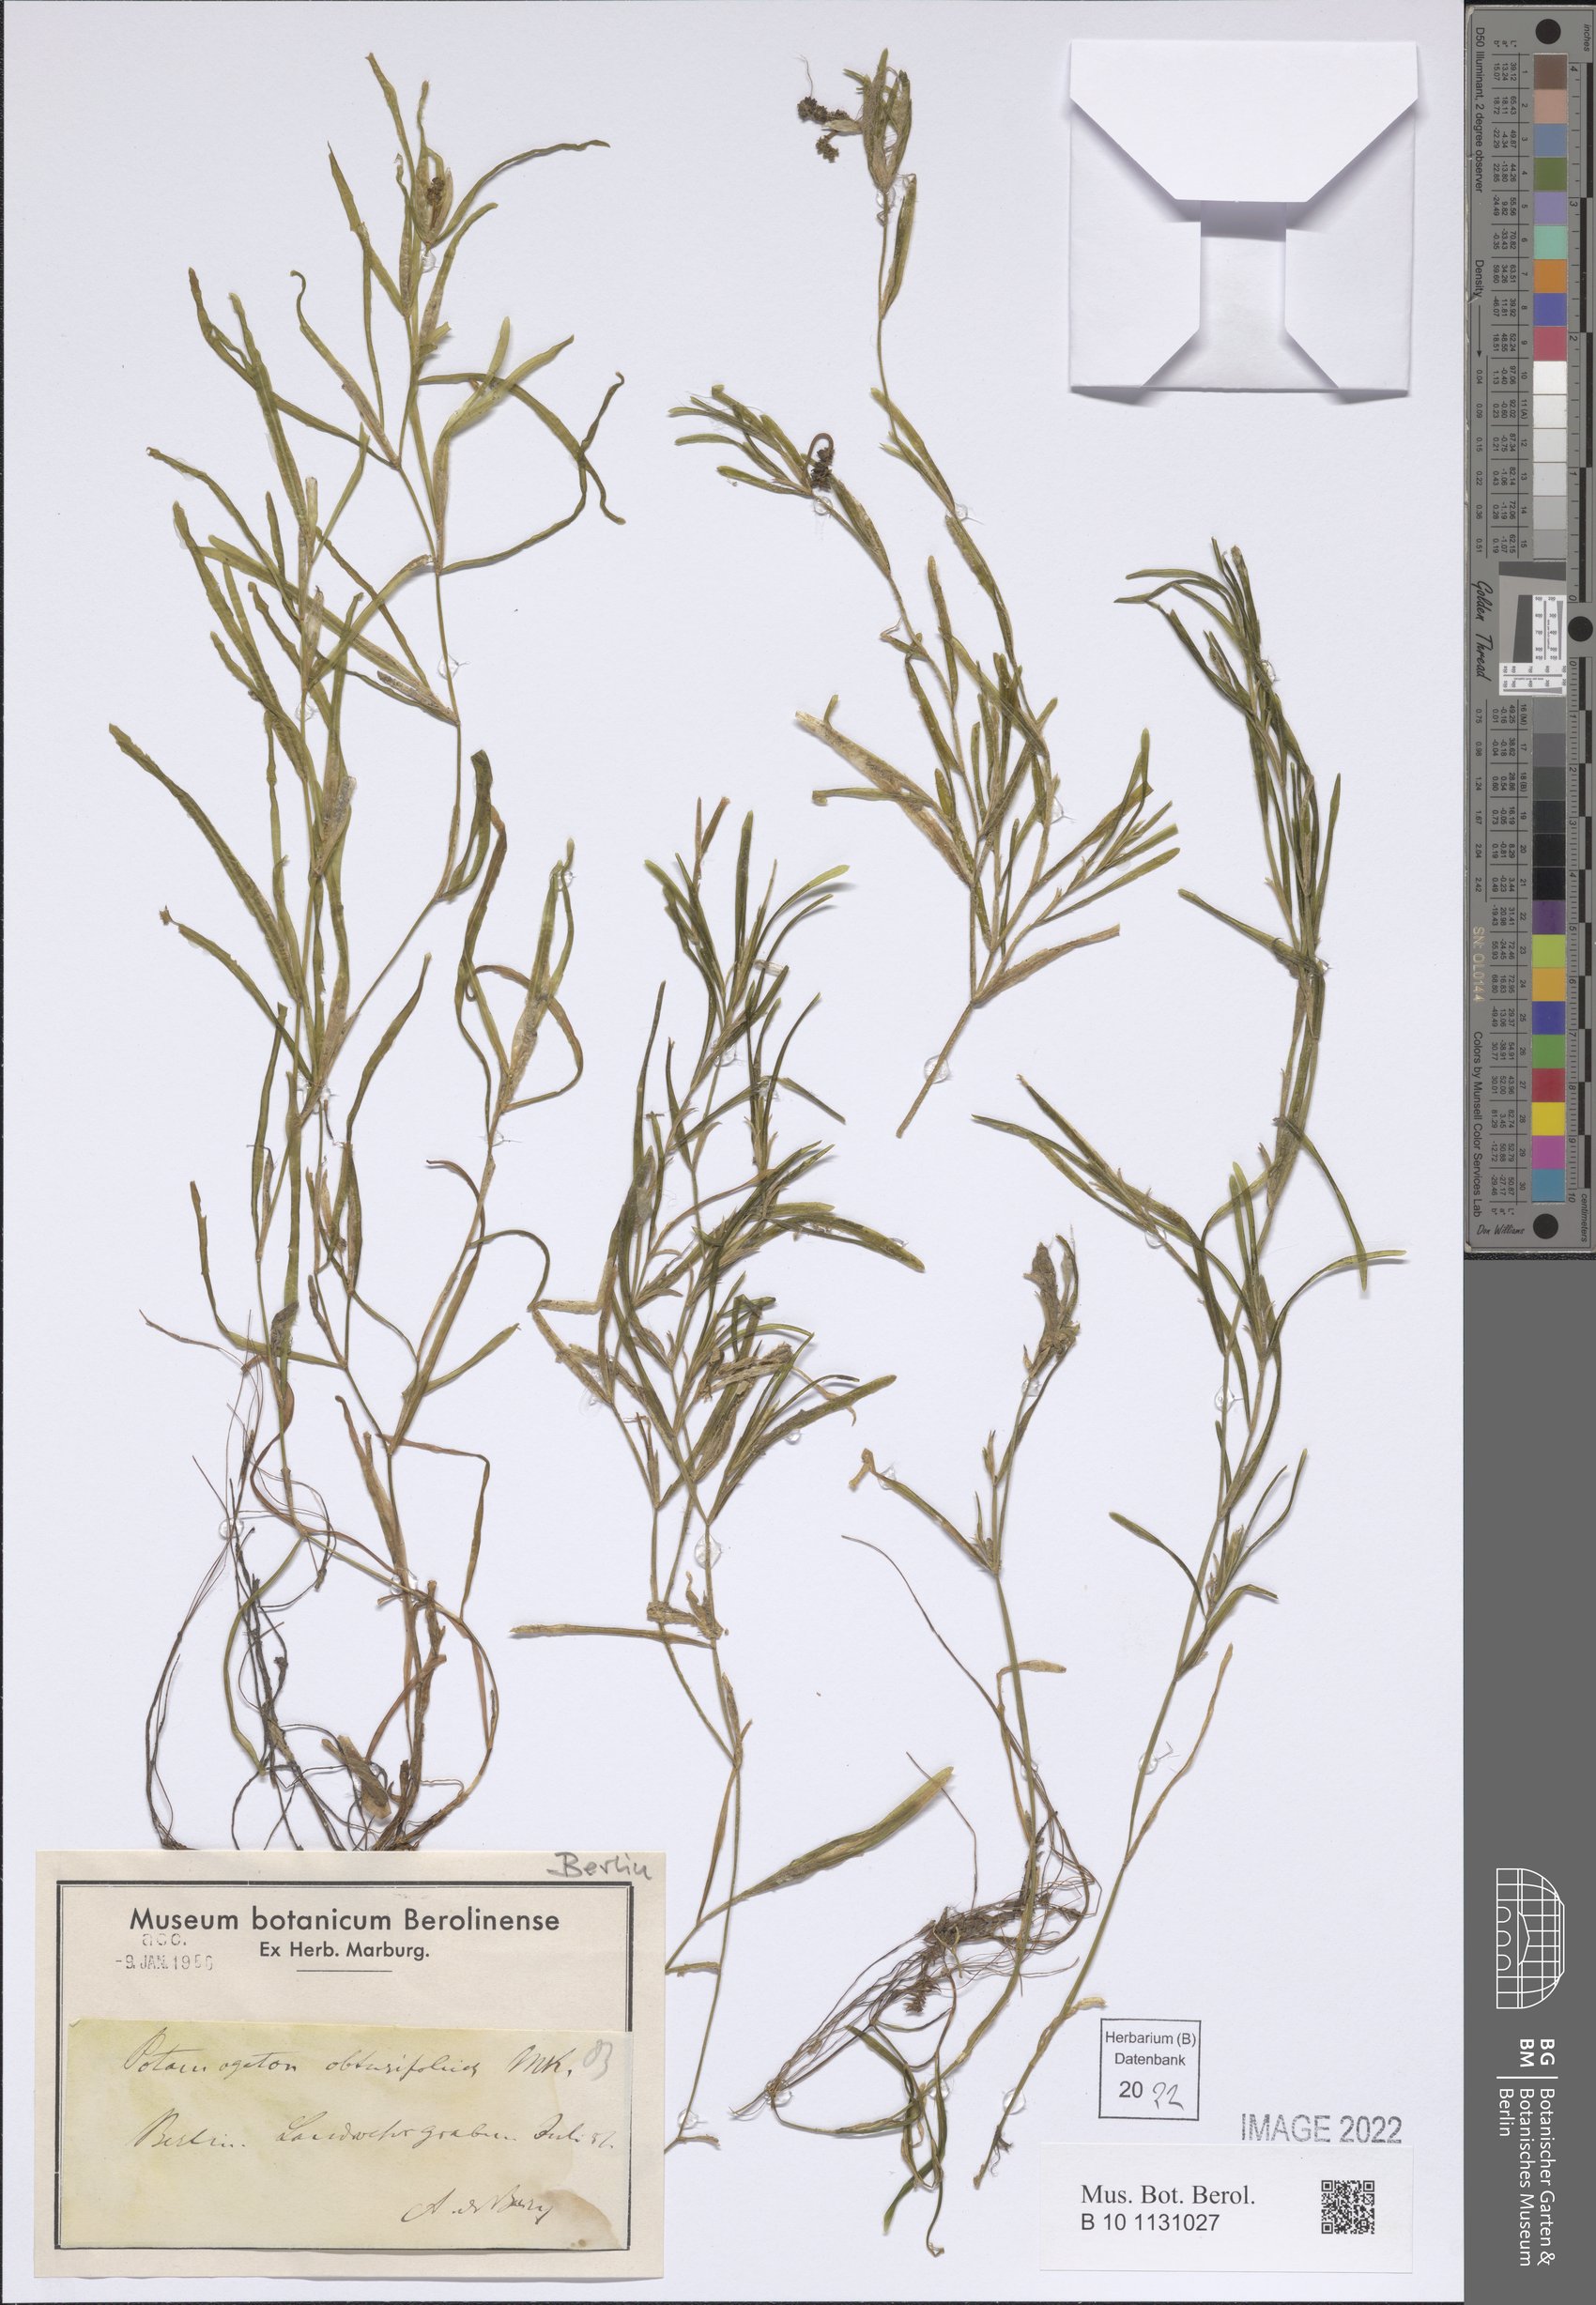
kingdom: Plantae
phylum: Tracheophyta
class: Liliopsida
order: Alismatales
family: Potamogetonaceae
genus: Potamogeton
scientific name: Potamogeton obtusifolius
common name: Blunt-leaved pondweed
